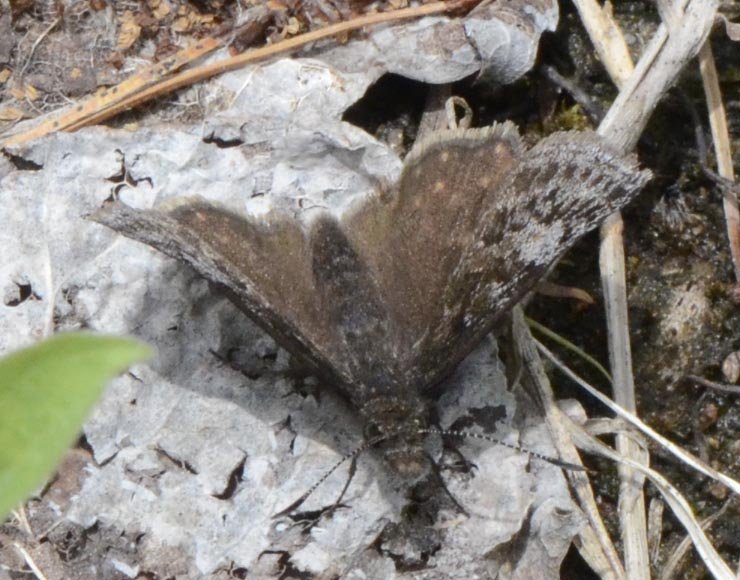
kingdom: Animalia
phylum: Arthropoda
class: Insecta
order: Lepidoptera
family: Hesperiidae
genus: Erynnis
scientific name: Erynnis icelus
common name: Dreamy Duskywing
